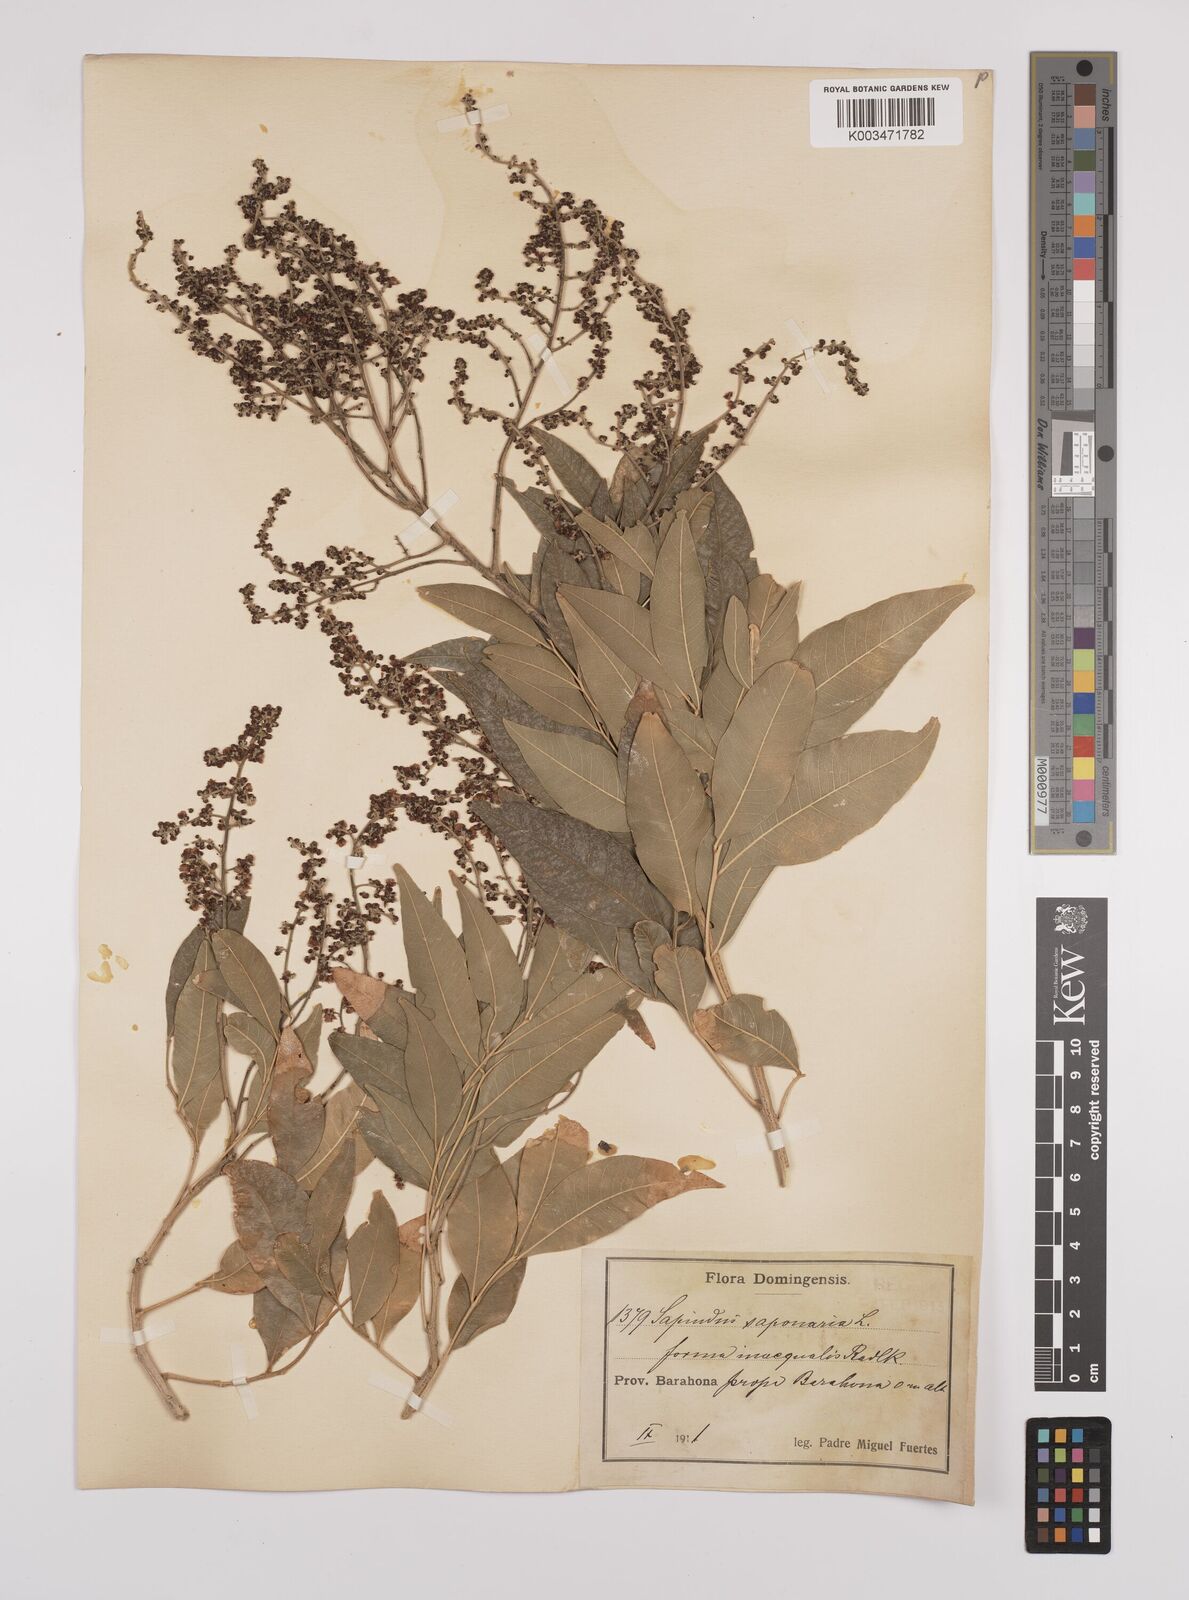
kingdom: Plantae
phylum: Tracheophyta
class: Magnoliopsida
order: Sapindales
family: Sapindaceae
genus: Sapindus
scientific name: Sapindus saponaria
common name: Wingleaf soapberry
